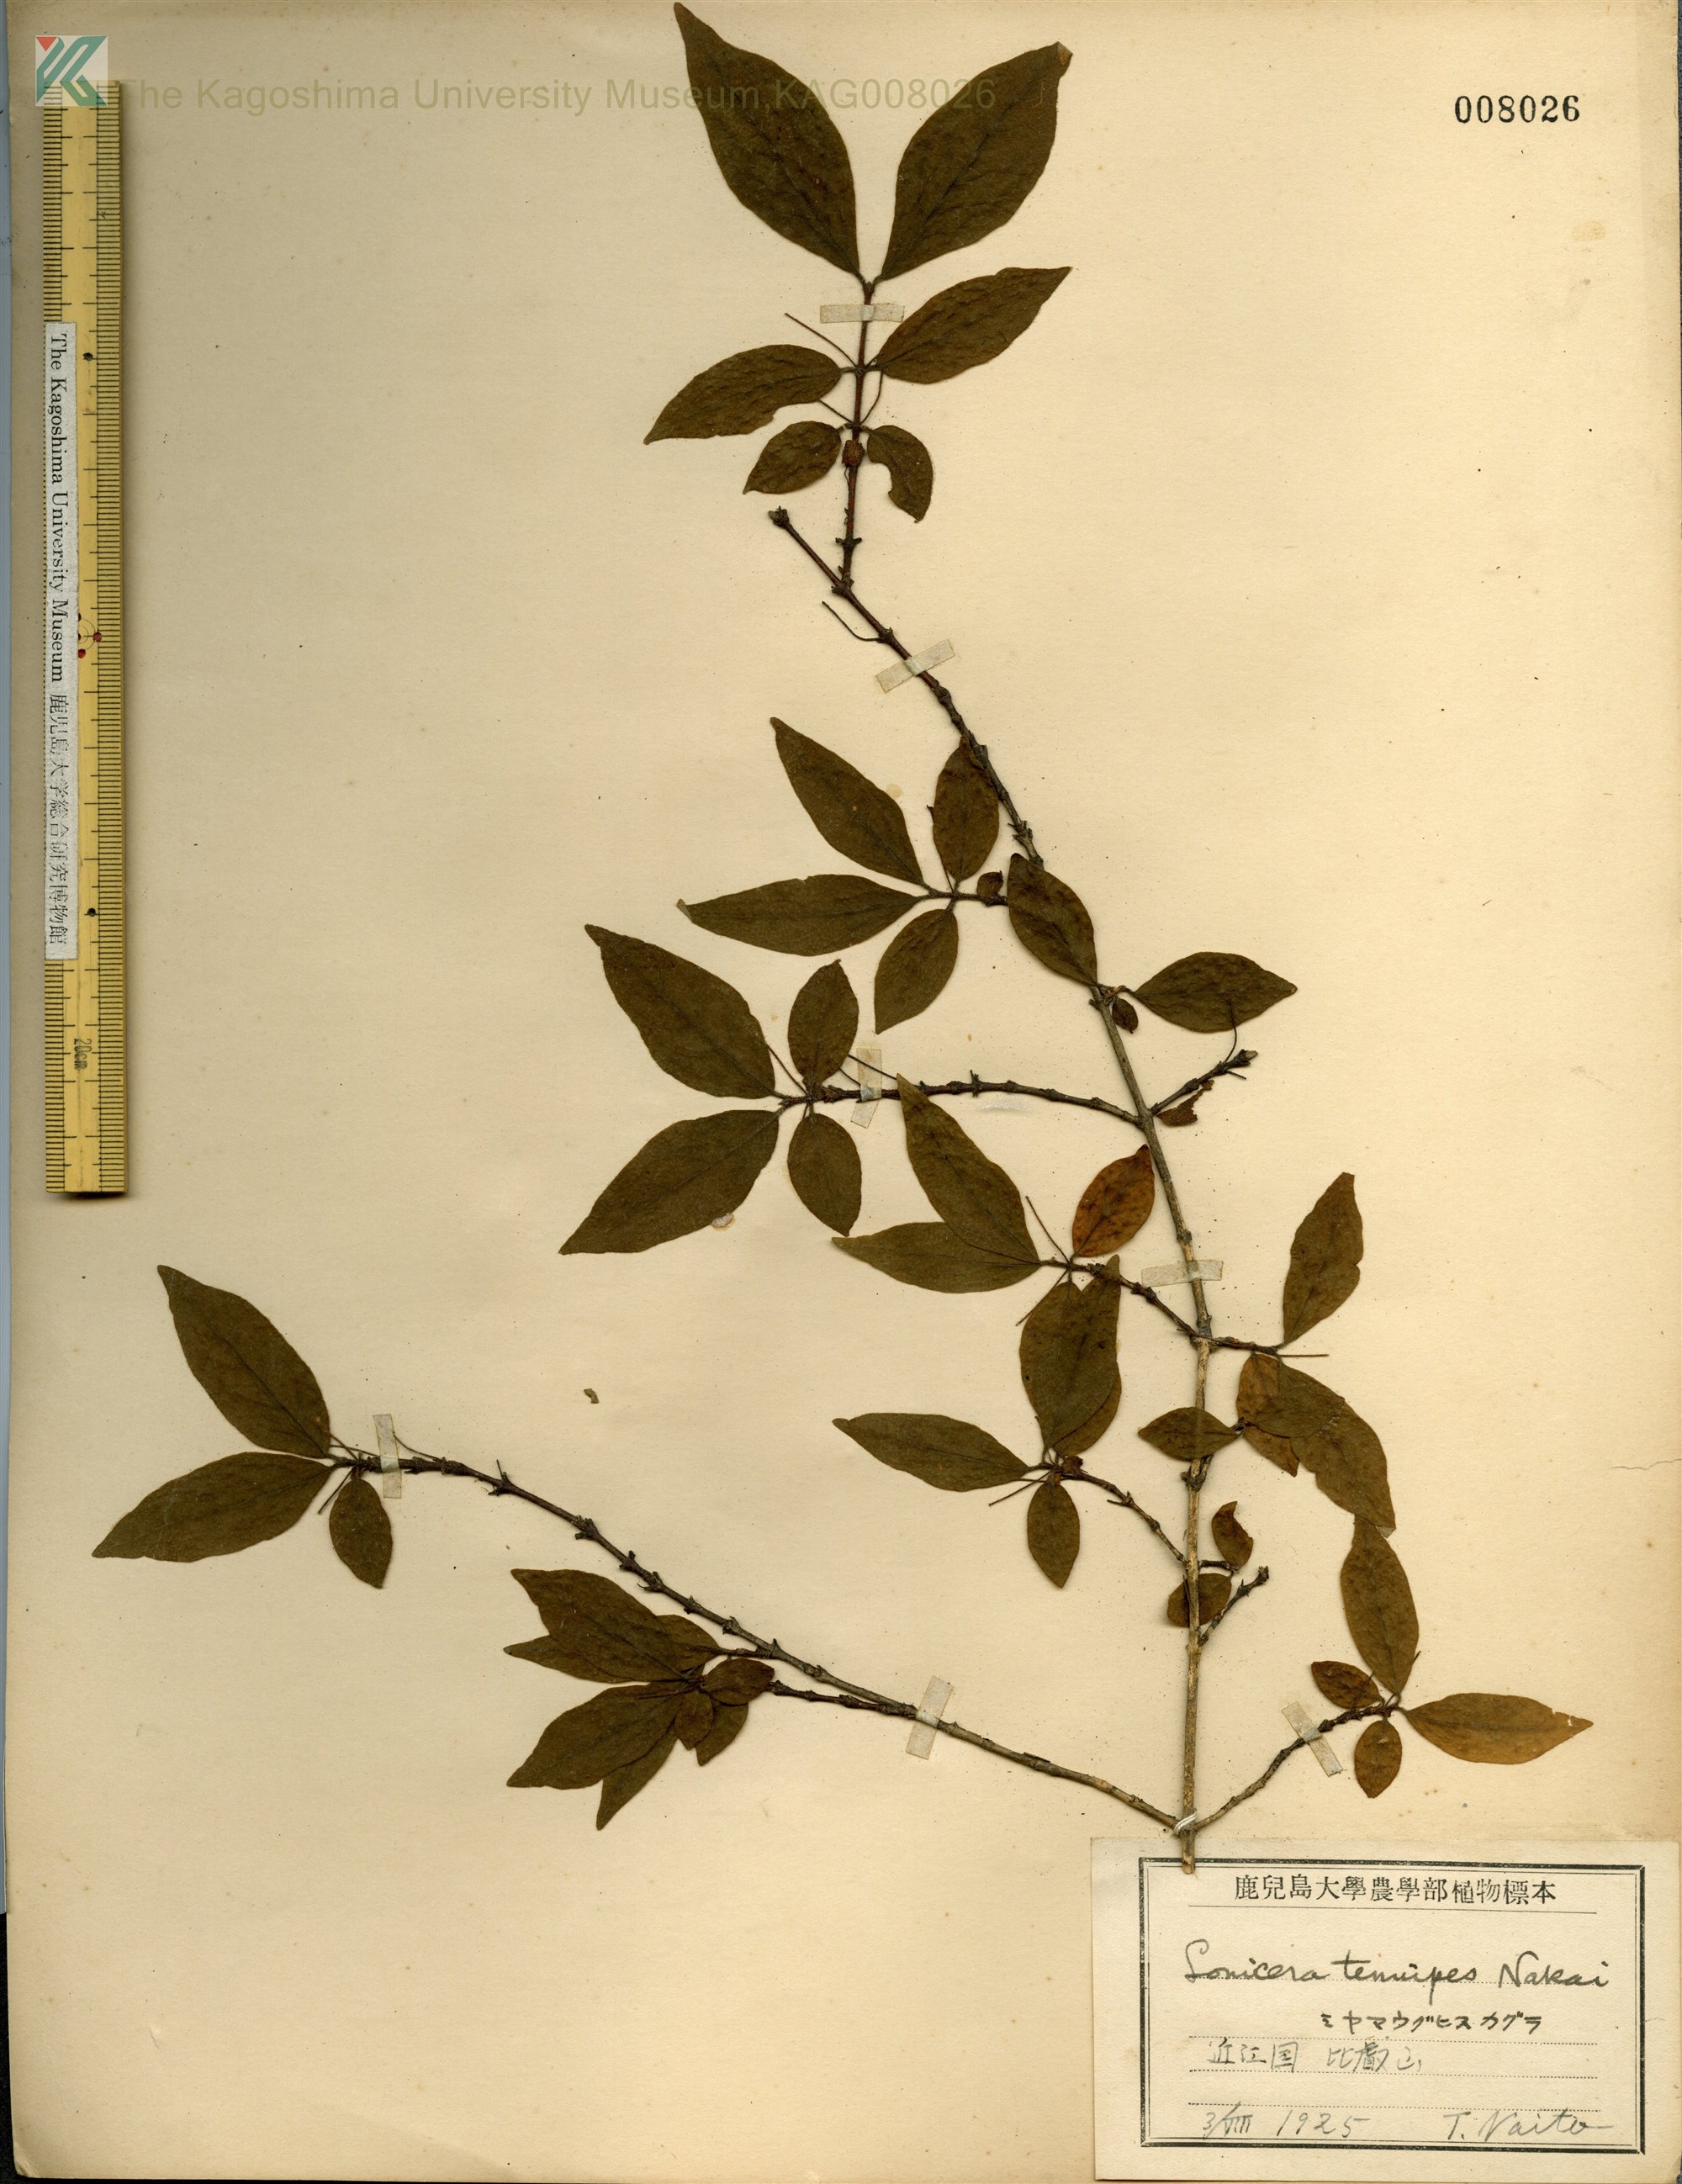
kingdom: Plantae
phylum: Tracheophyta
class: Magnoliopsida
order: Dipsacales
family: Caprifoliaceae
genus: Lonicera
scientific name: Lonicera gracilipes
